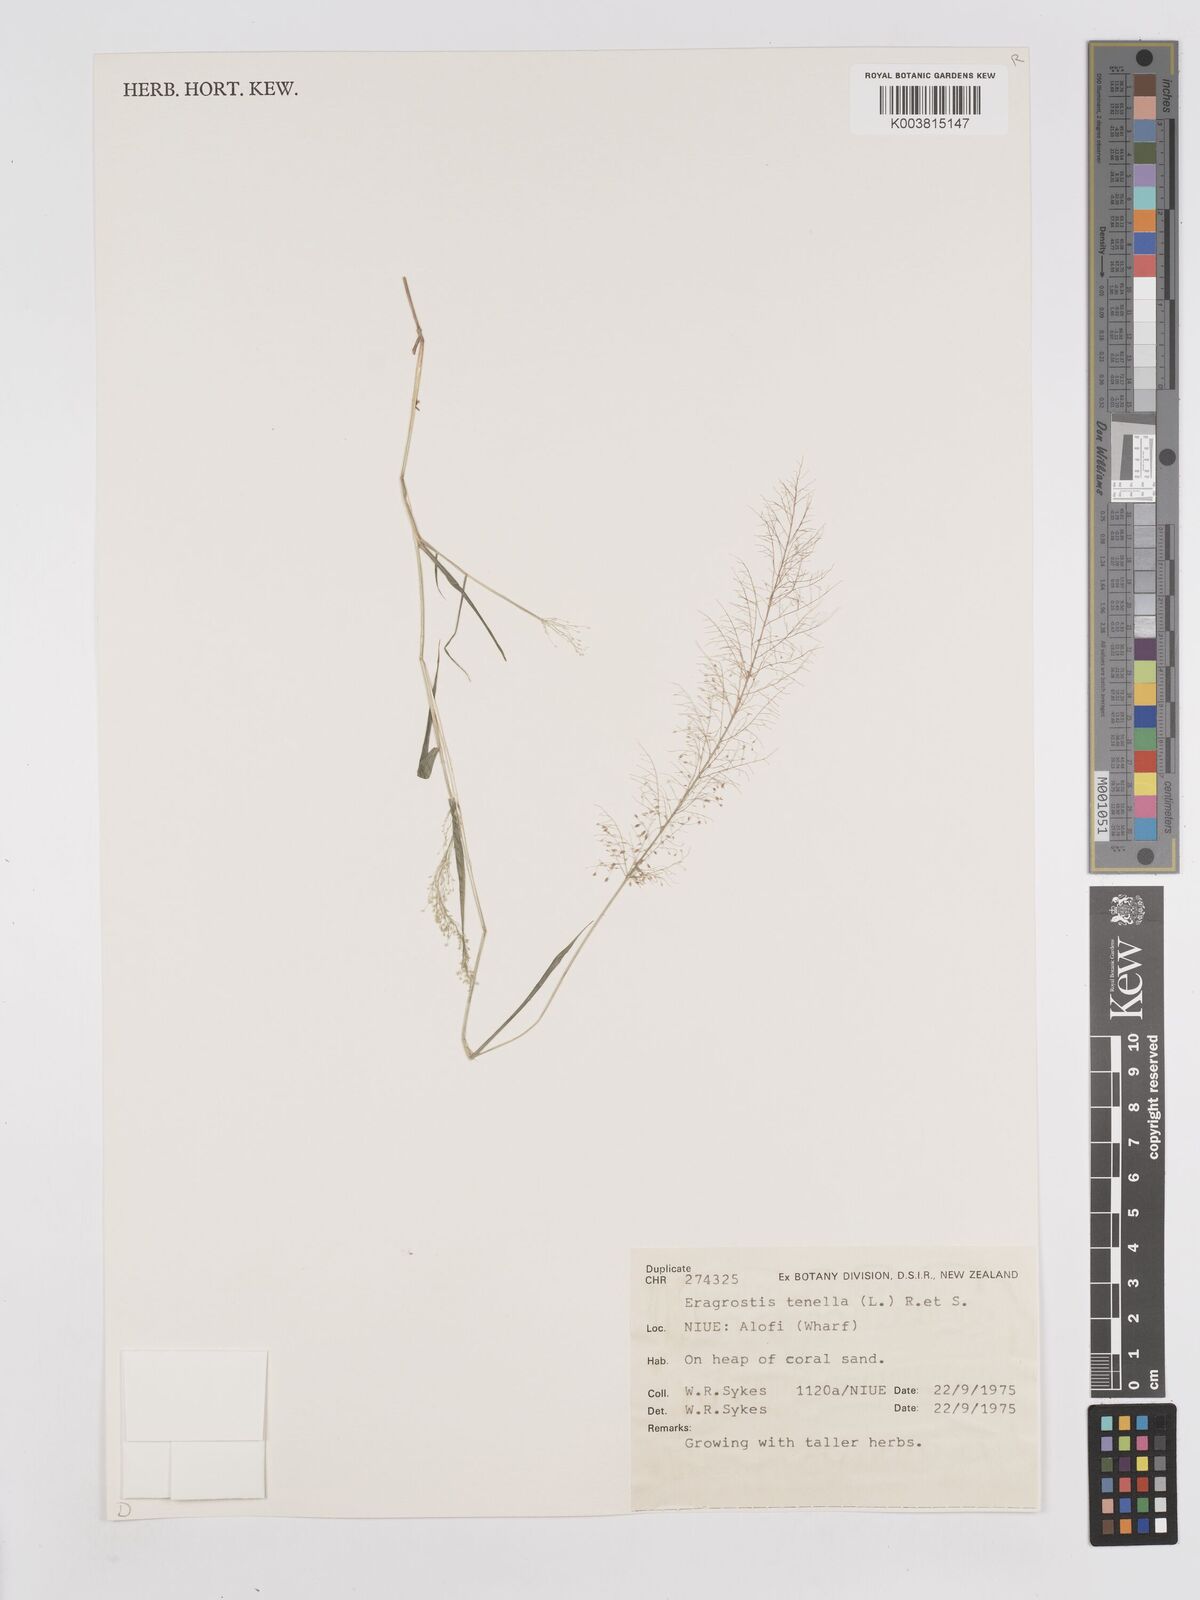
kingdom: Plantae
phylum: Tracheophyta
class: Liliopsida
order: Poales
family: Poaceae
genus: Eragrostis
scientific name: Eragrostis tenella
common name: Japanese lovegrass
